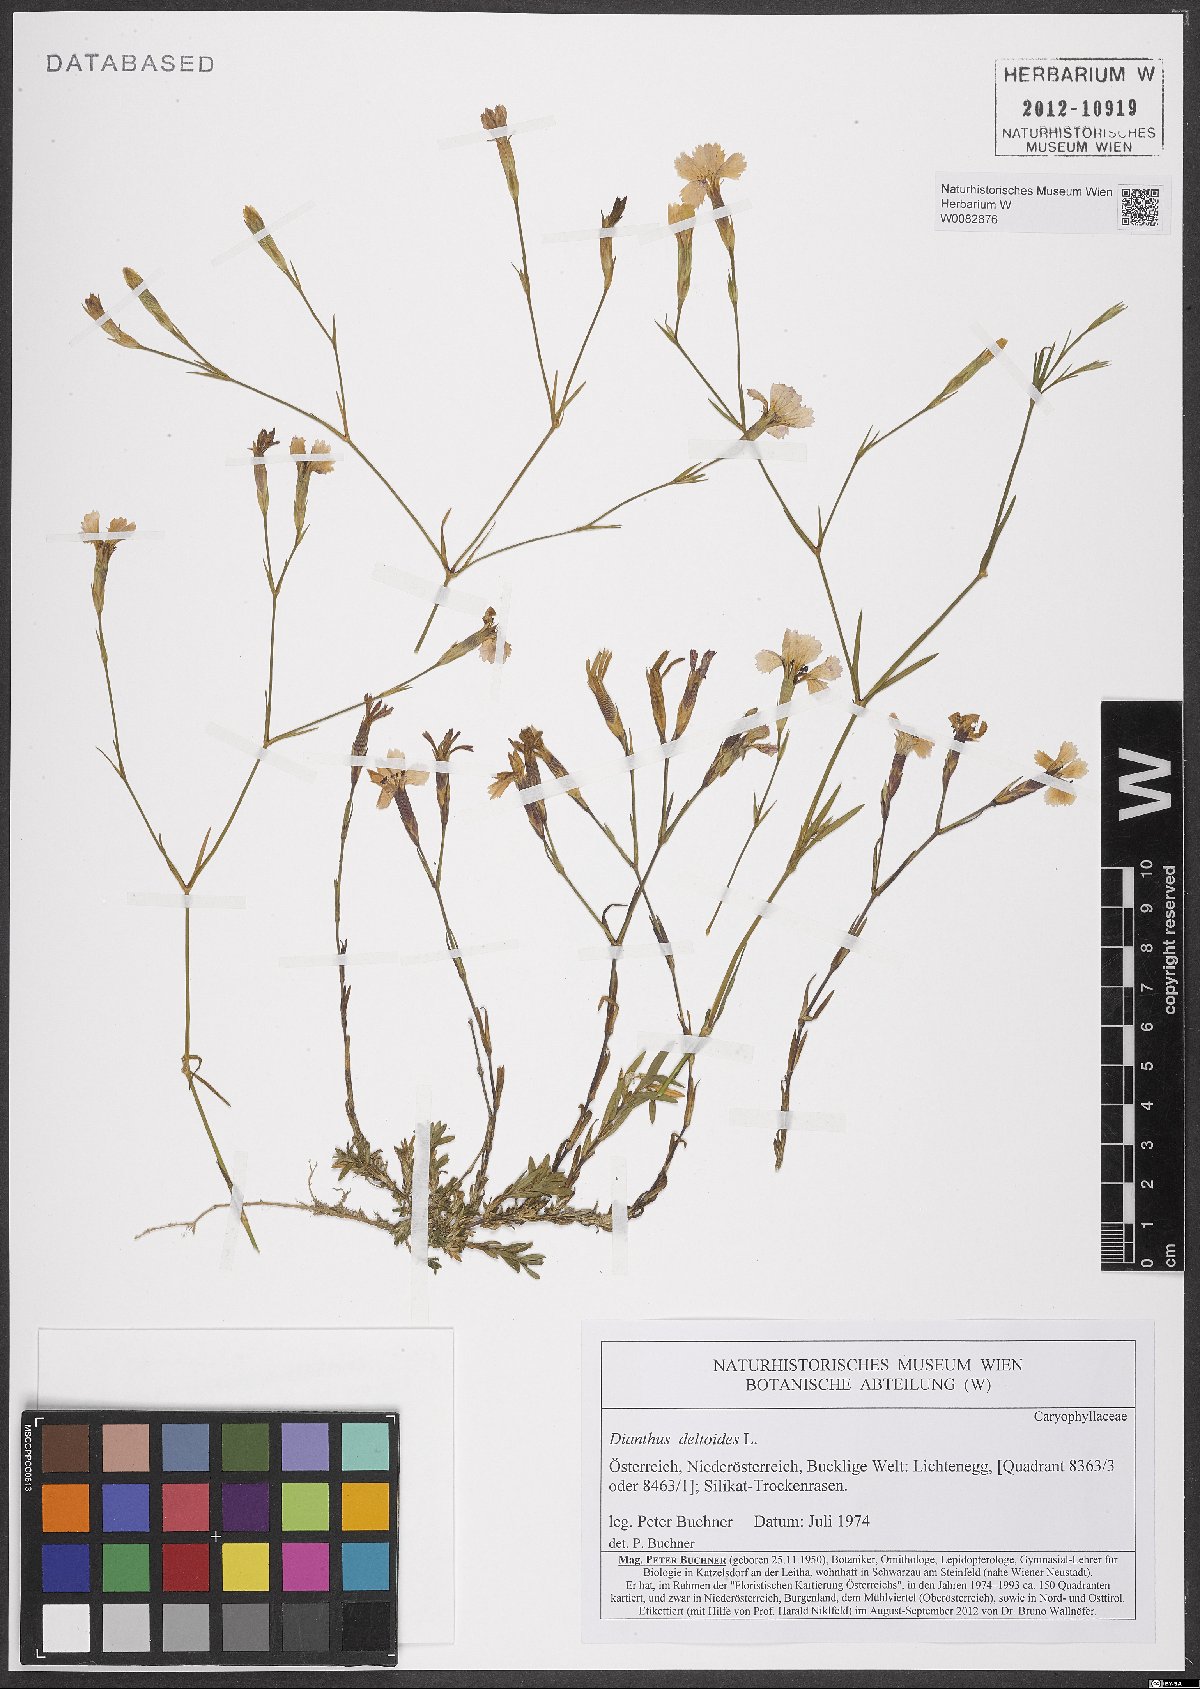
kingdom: Plantae
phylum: Tracheophyta
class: Magnoliopsida
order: Caryophyllales
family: Caryophyllaceae
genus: Dianthus
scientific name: Dianthus deltoides
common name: Maiden pink
